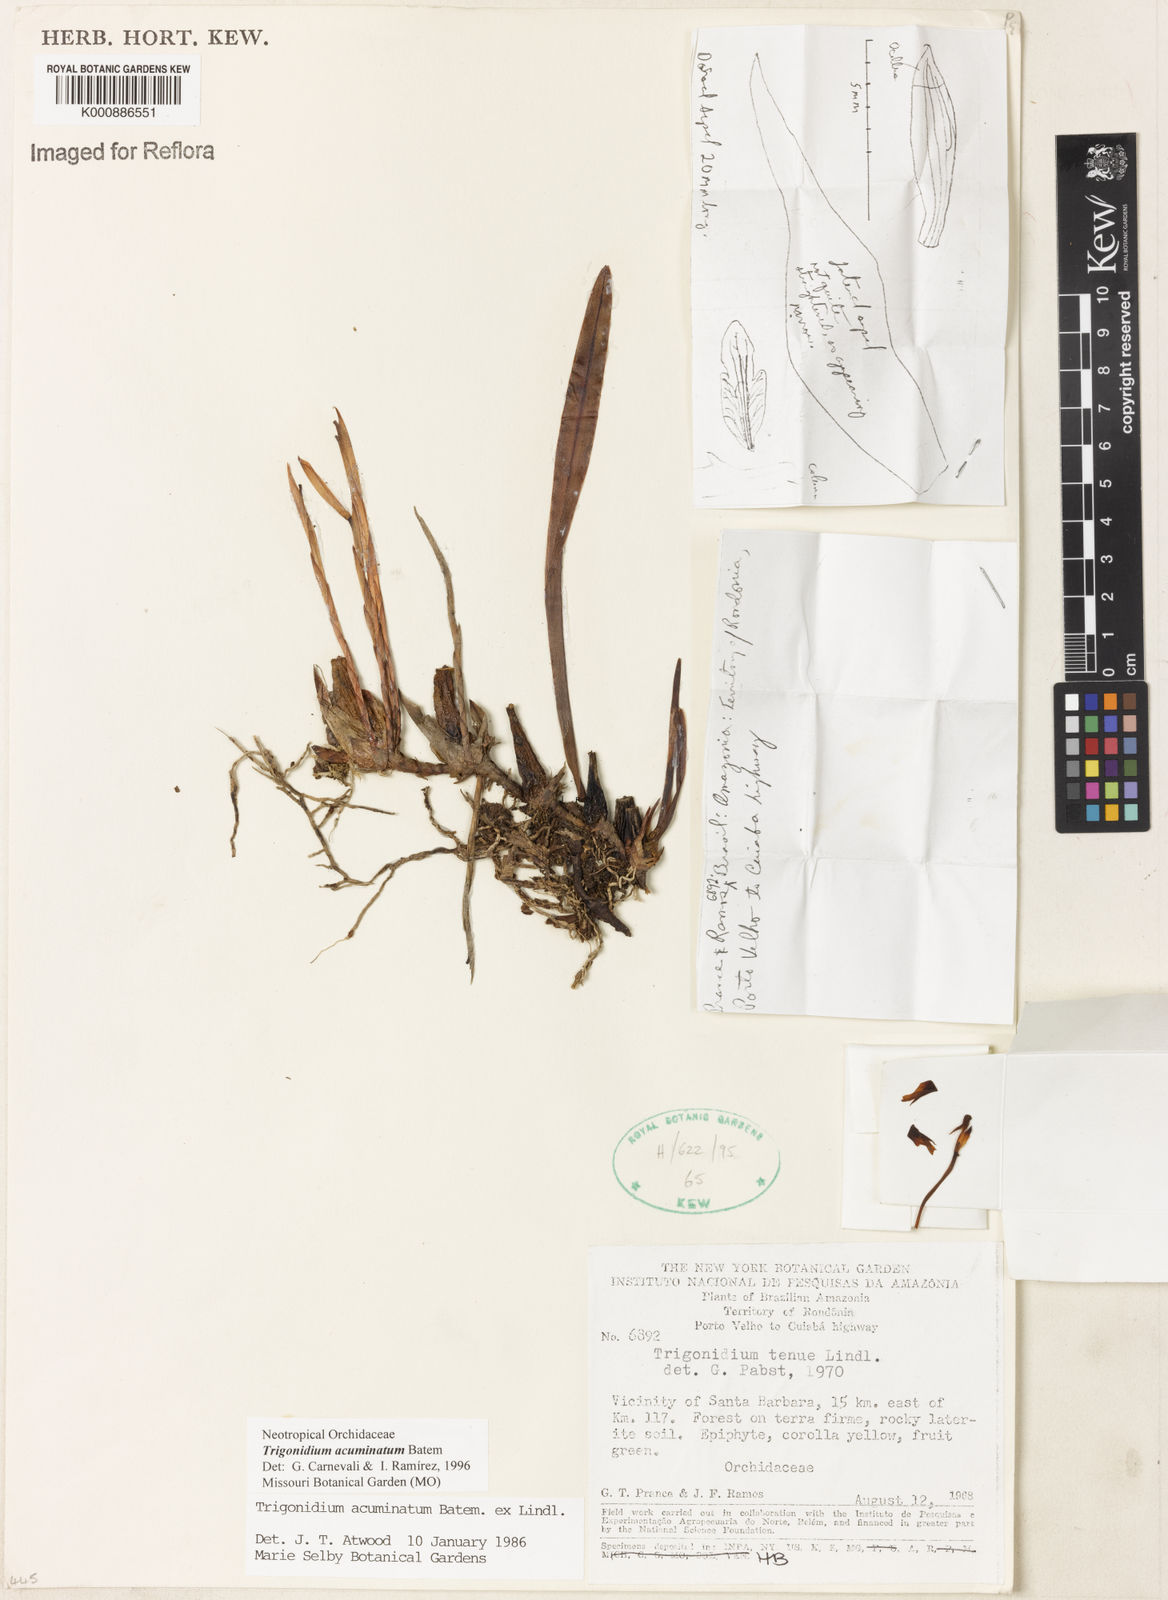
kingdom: Animalia
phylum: Arthropoda
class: Insecta
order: Orthoptera
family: Trigonidiidae
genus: Trigonidium
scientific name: Trigonidium
